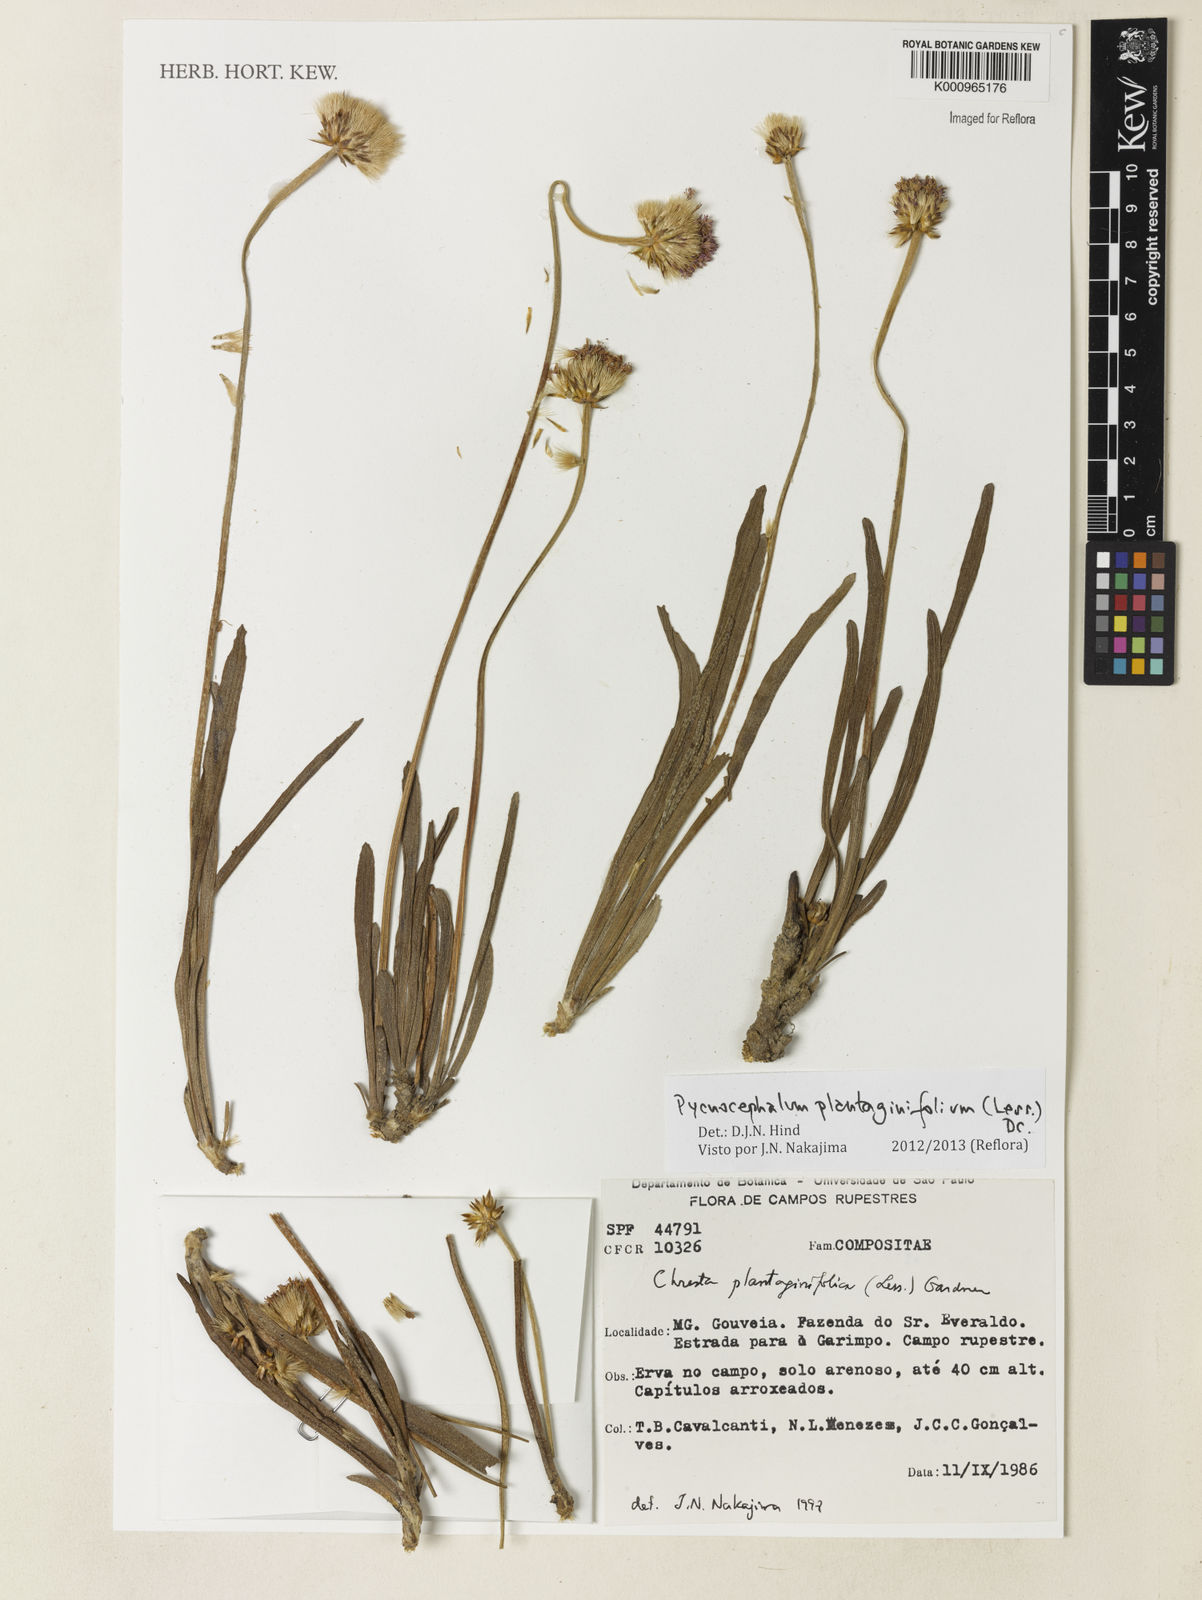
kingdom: Plantae
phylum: Tracheophyta
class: Magnoliopsida
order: Asterales
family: Asteraceae
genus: Chresta
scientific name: Chresta plantaginifolia
